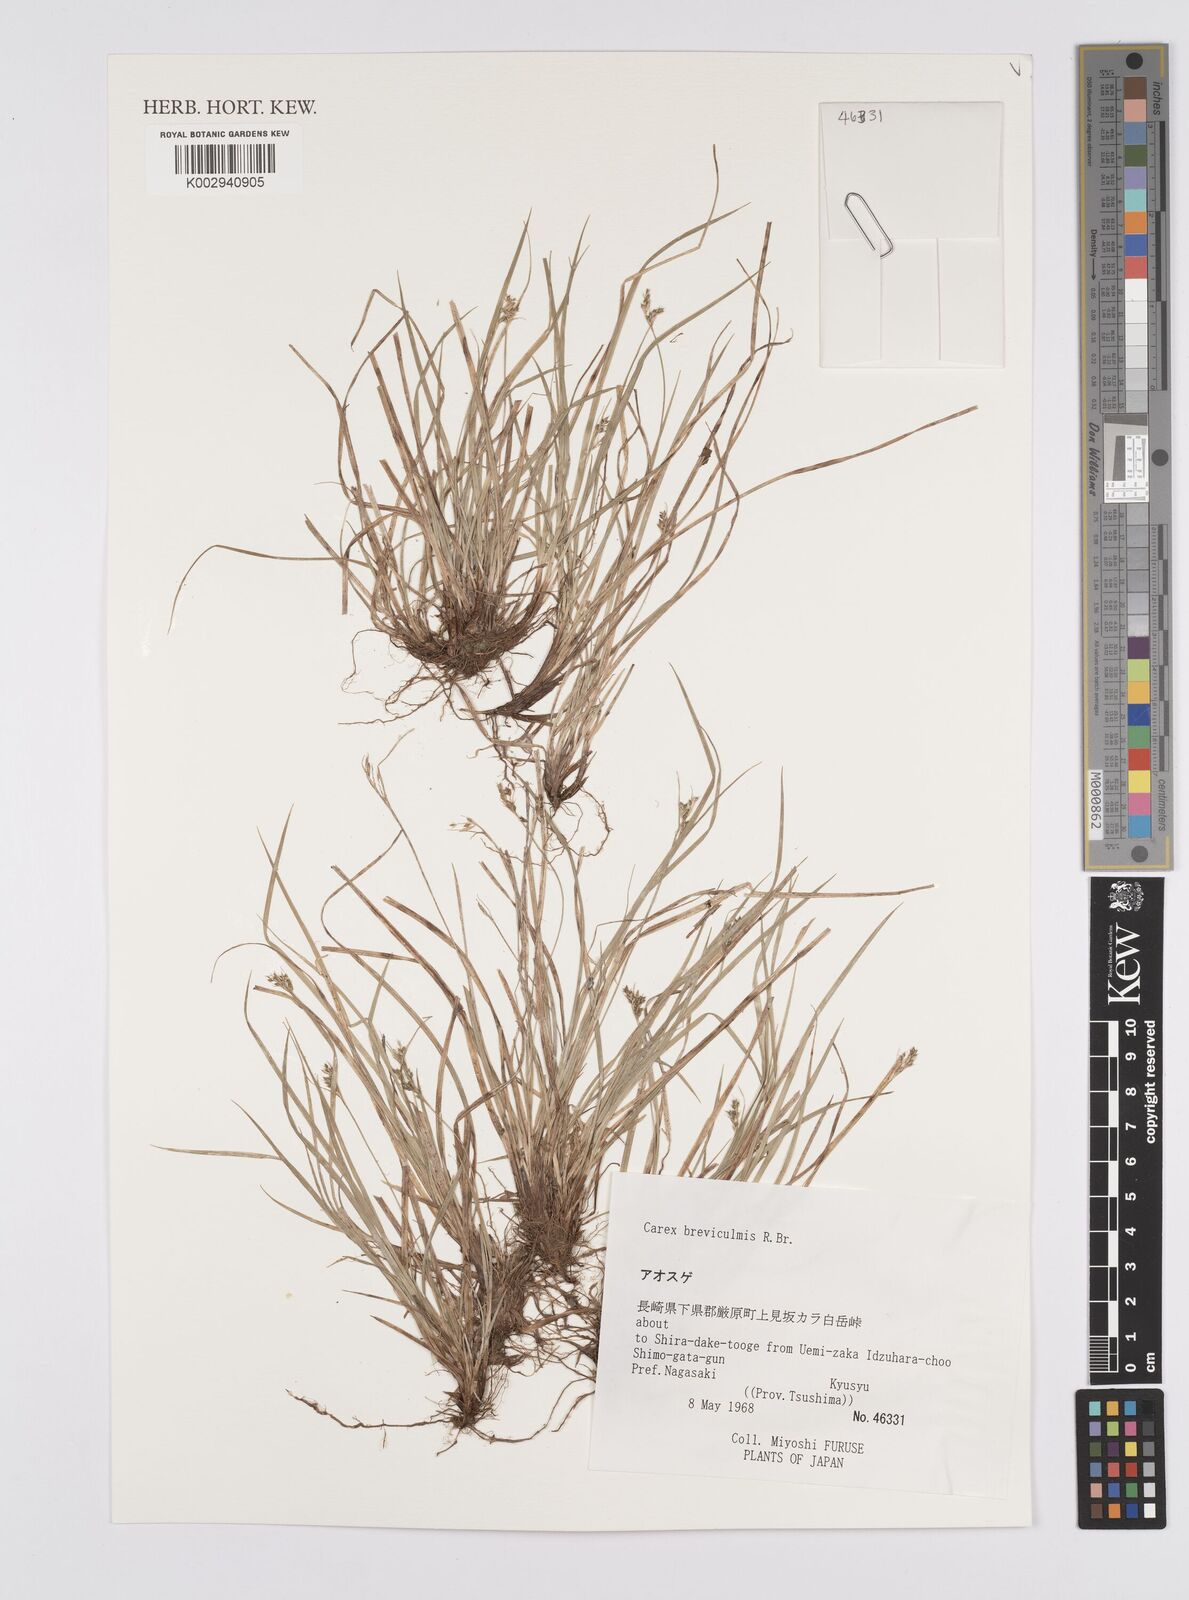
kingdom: Plantae
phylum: Tracheophyta
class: Liliopsida
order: Poales
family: Cyperaceae
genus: Carex
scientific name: Carex breviculmis
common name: Asian shortstem sedge
